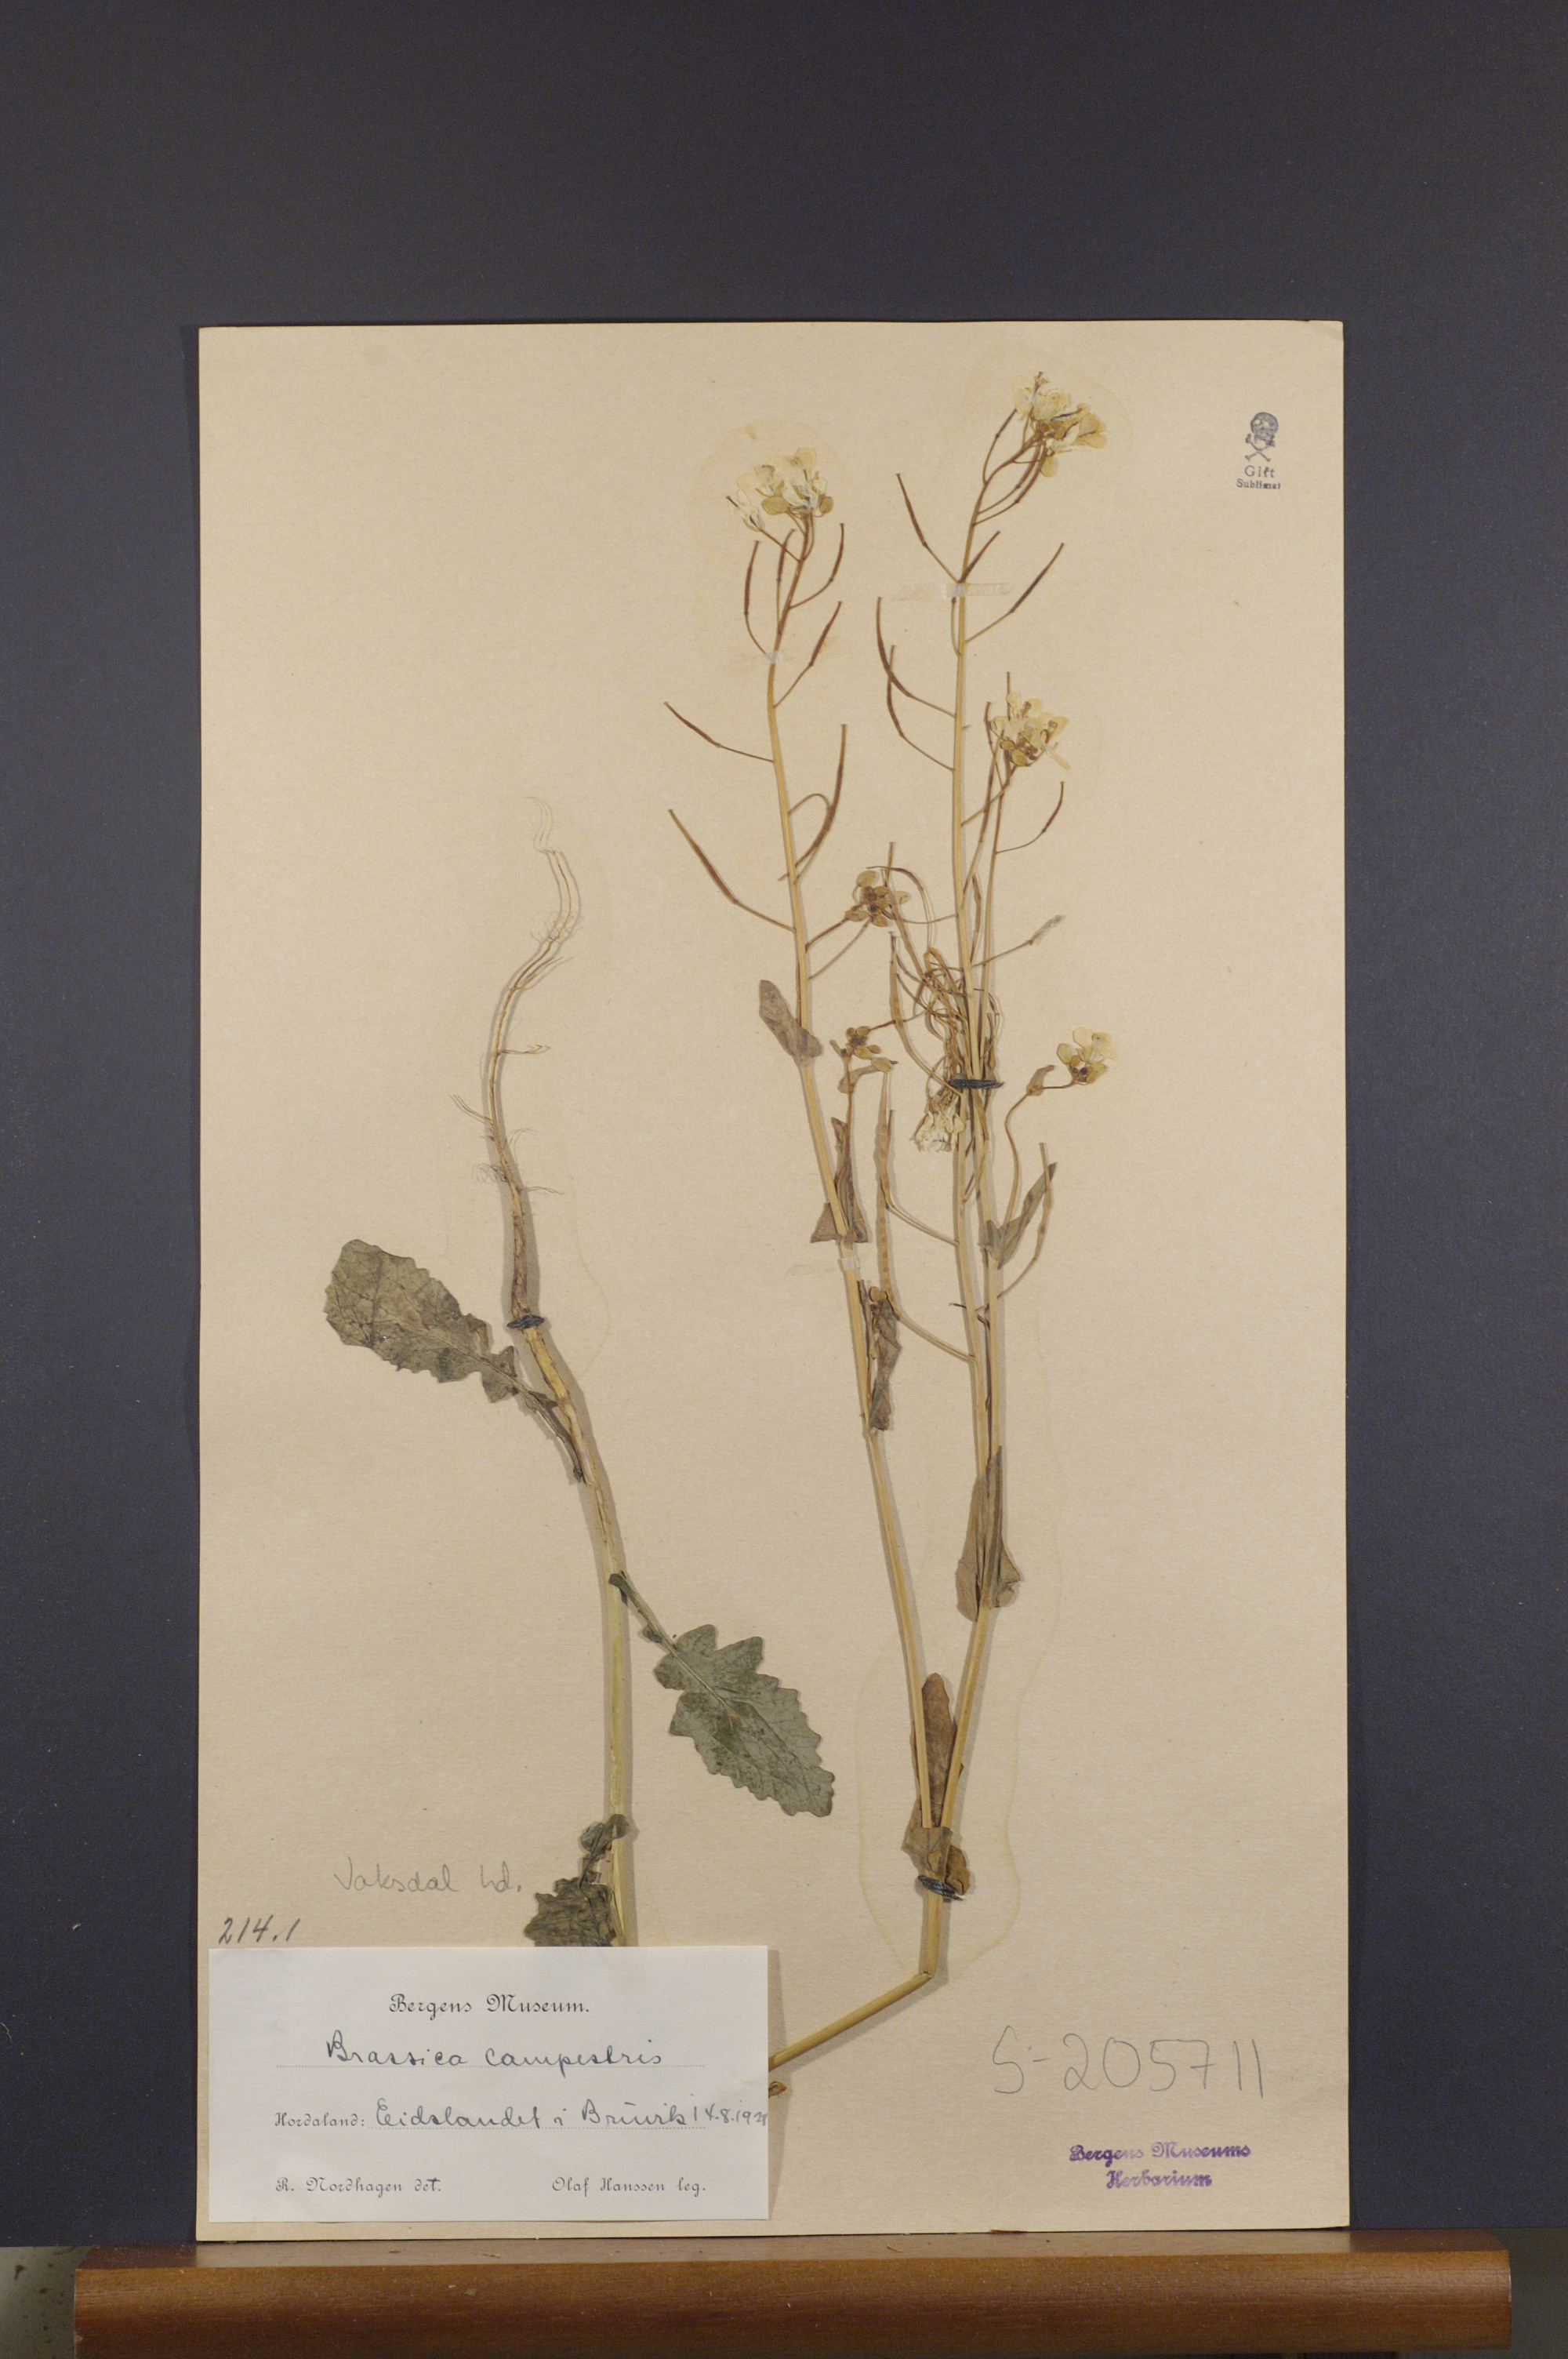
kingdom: Plantae
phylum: Tracheophyta
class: Magnoliopsida
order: Brassicales
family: Brassicaceae
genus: Brassica
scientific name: Brassica rapa
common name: Field mustard
